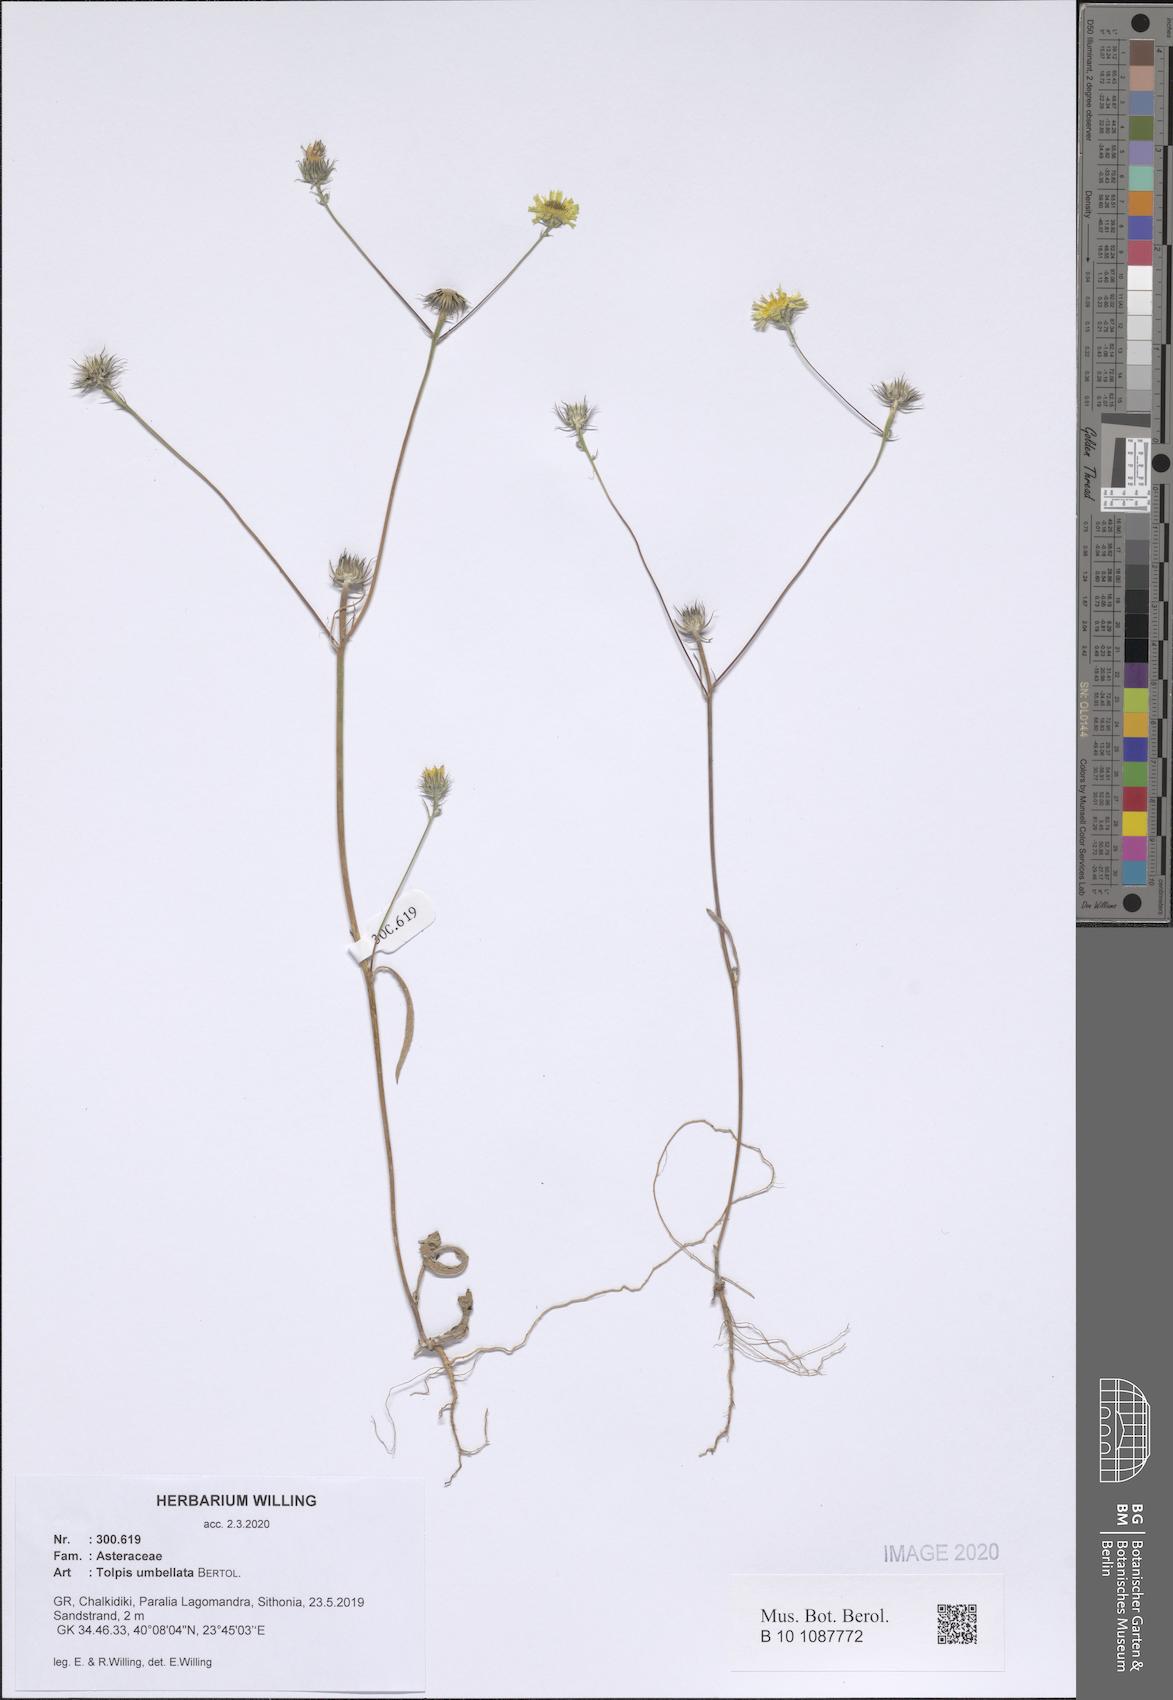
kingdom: Plantae
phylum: Tracheophyta
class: Magnoliopsida
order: Asterales
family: Asteraceae
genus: Tolpis
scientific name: Tolpis umbellata
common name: Yellow hawkweed
